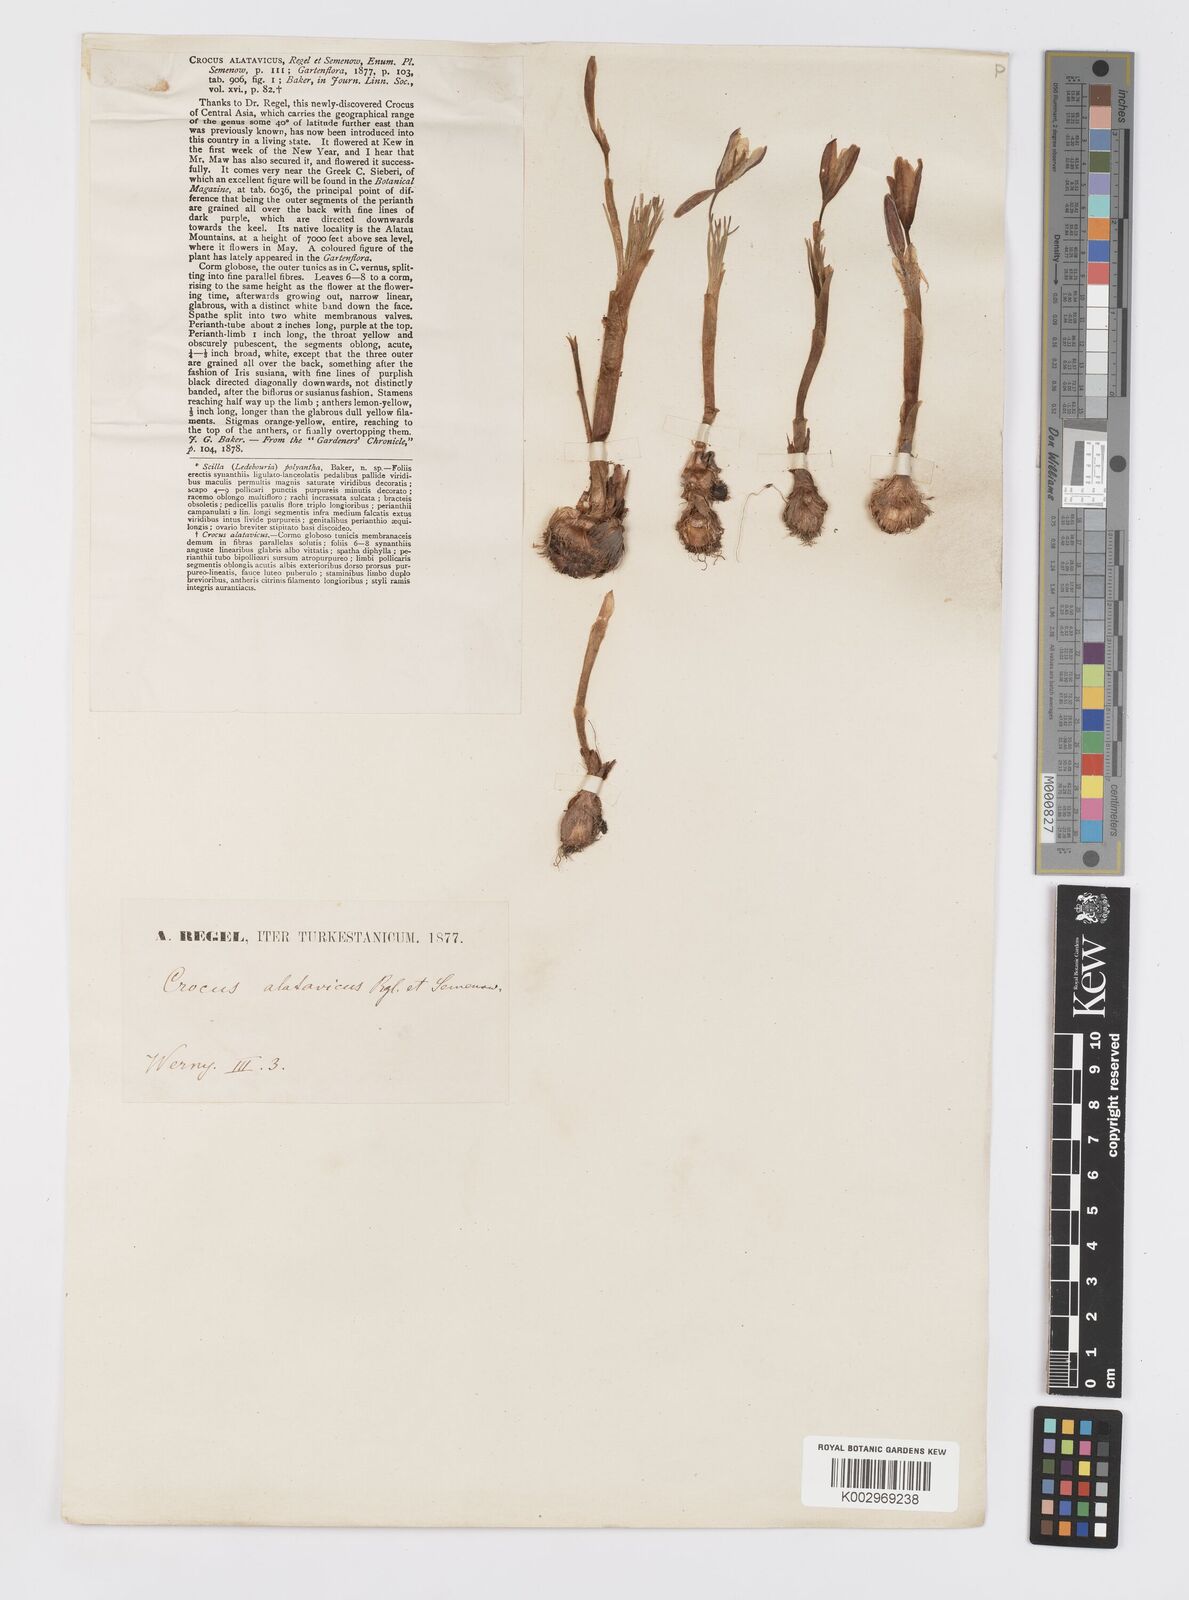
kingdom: Plantae
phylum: Tracheophyta
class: Liliopsida
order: Asparagales
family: Iridaceae
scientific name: Iridaceae
